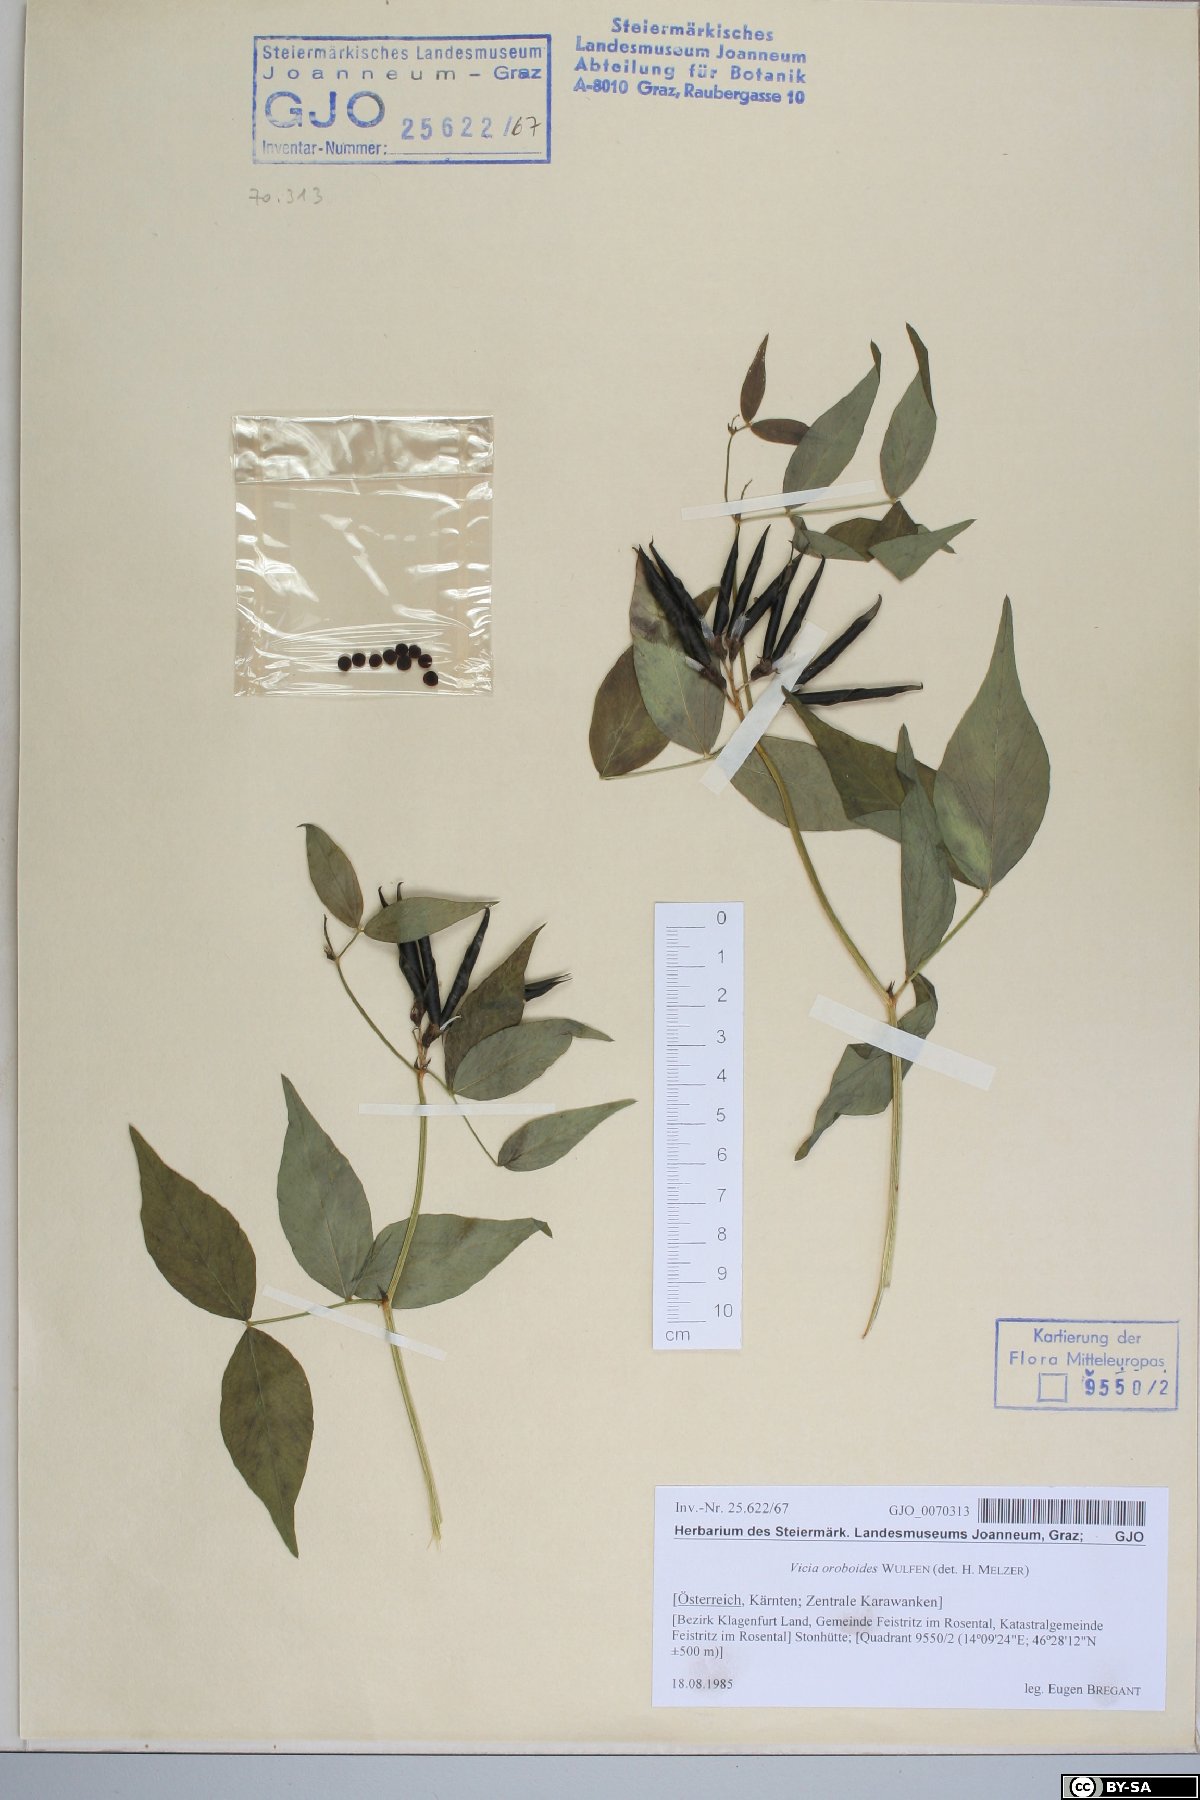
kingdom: Plantae
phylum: Tracheophyta
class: Magnoliopsida
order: Fabales
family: Fabaceae
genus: Vicia
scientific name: Vicia oroboides
